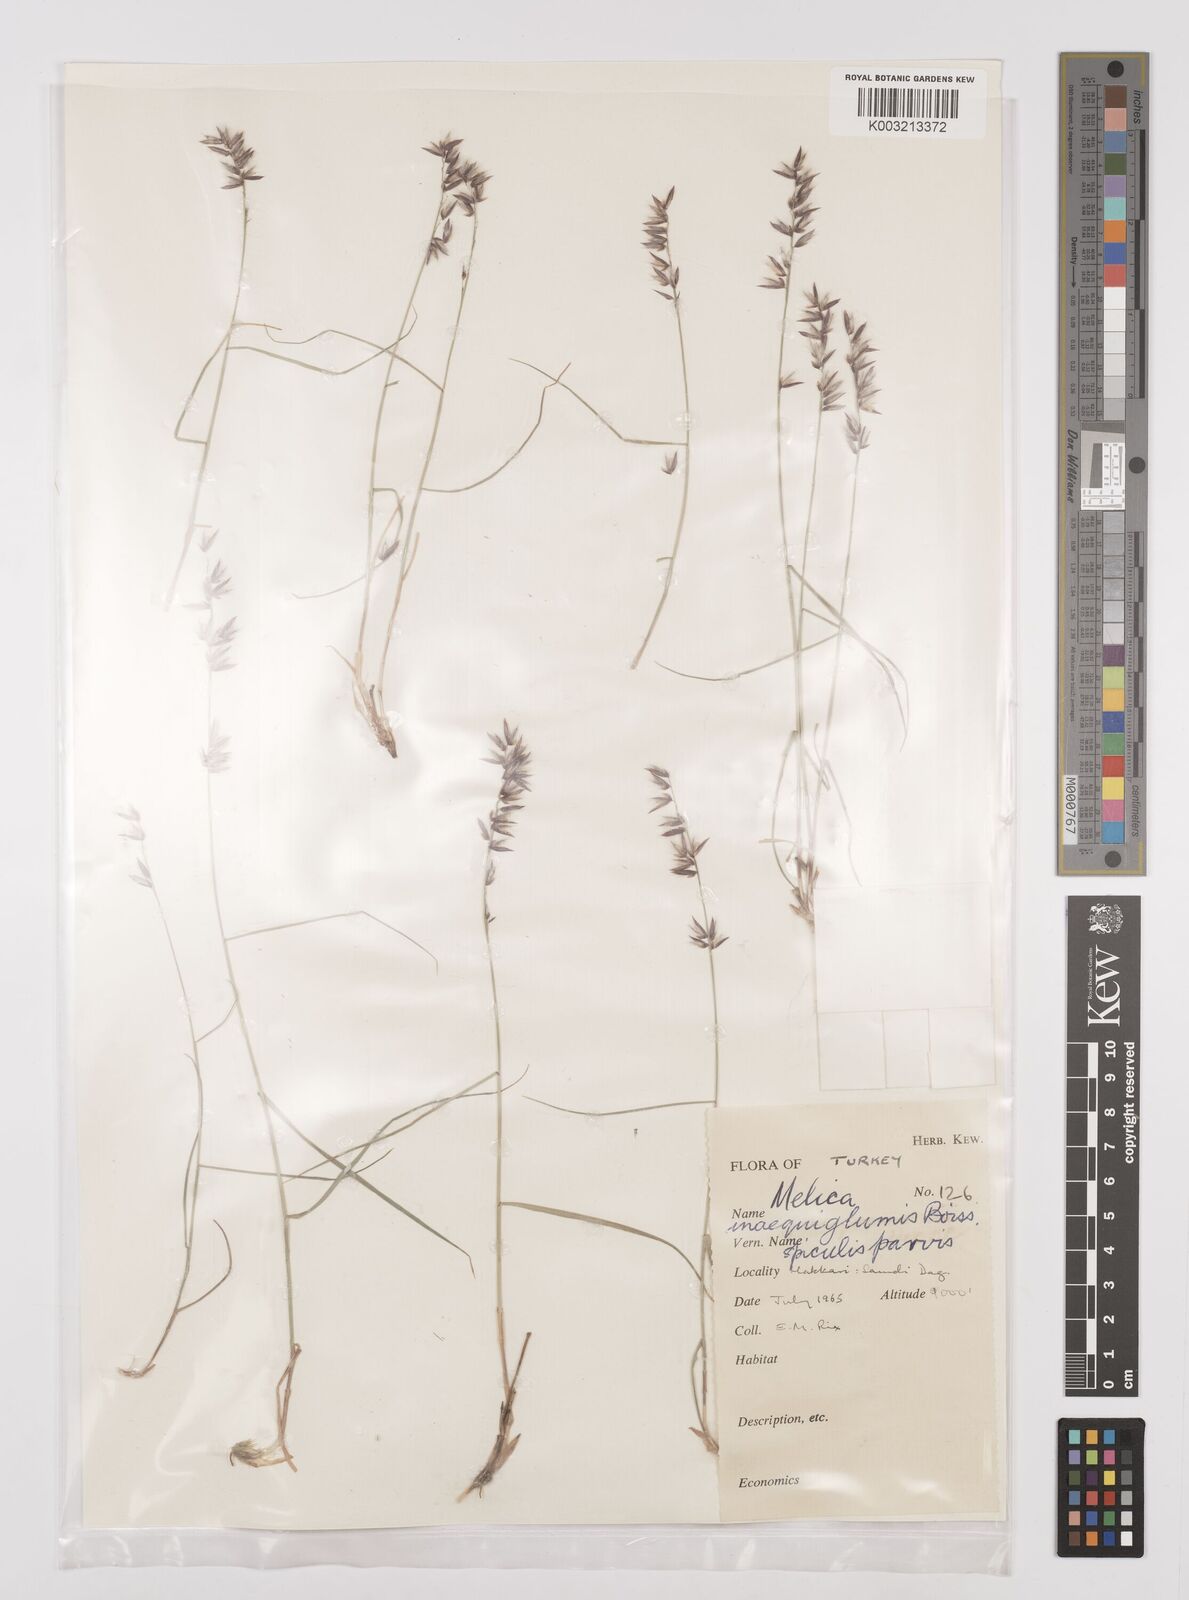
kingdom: Plantae
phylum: Tracheophyta
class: Liliopsida
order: Poales
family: Poaceae
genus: Melica
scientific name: Melica persica
